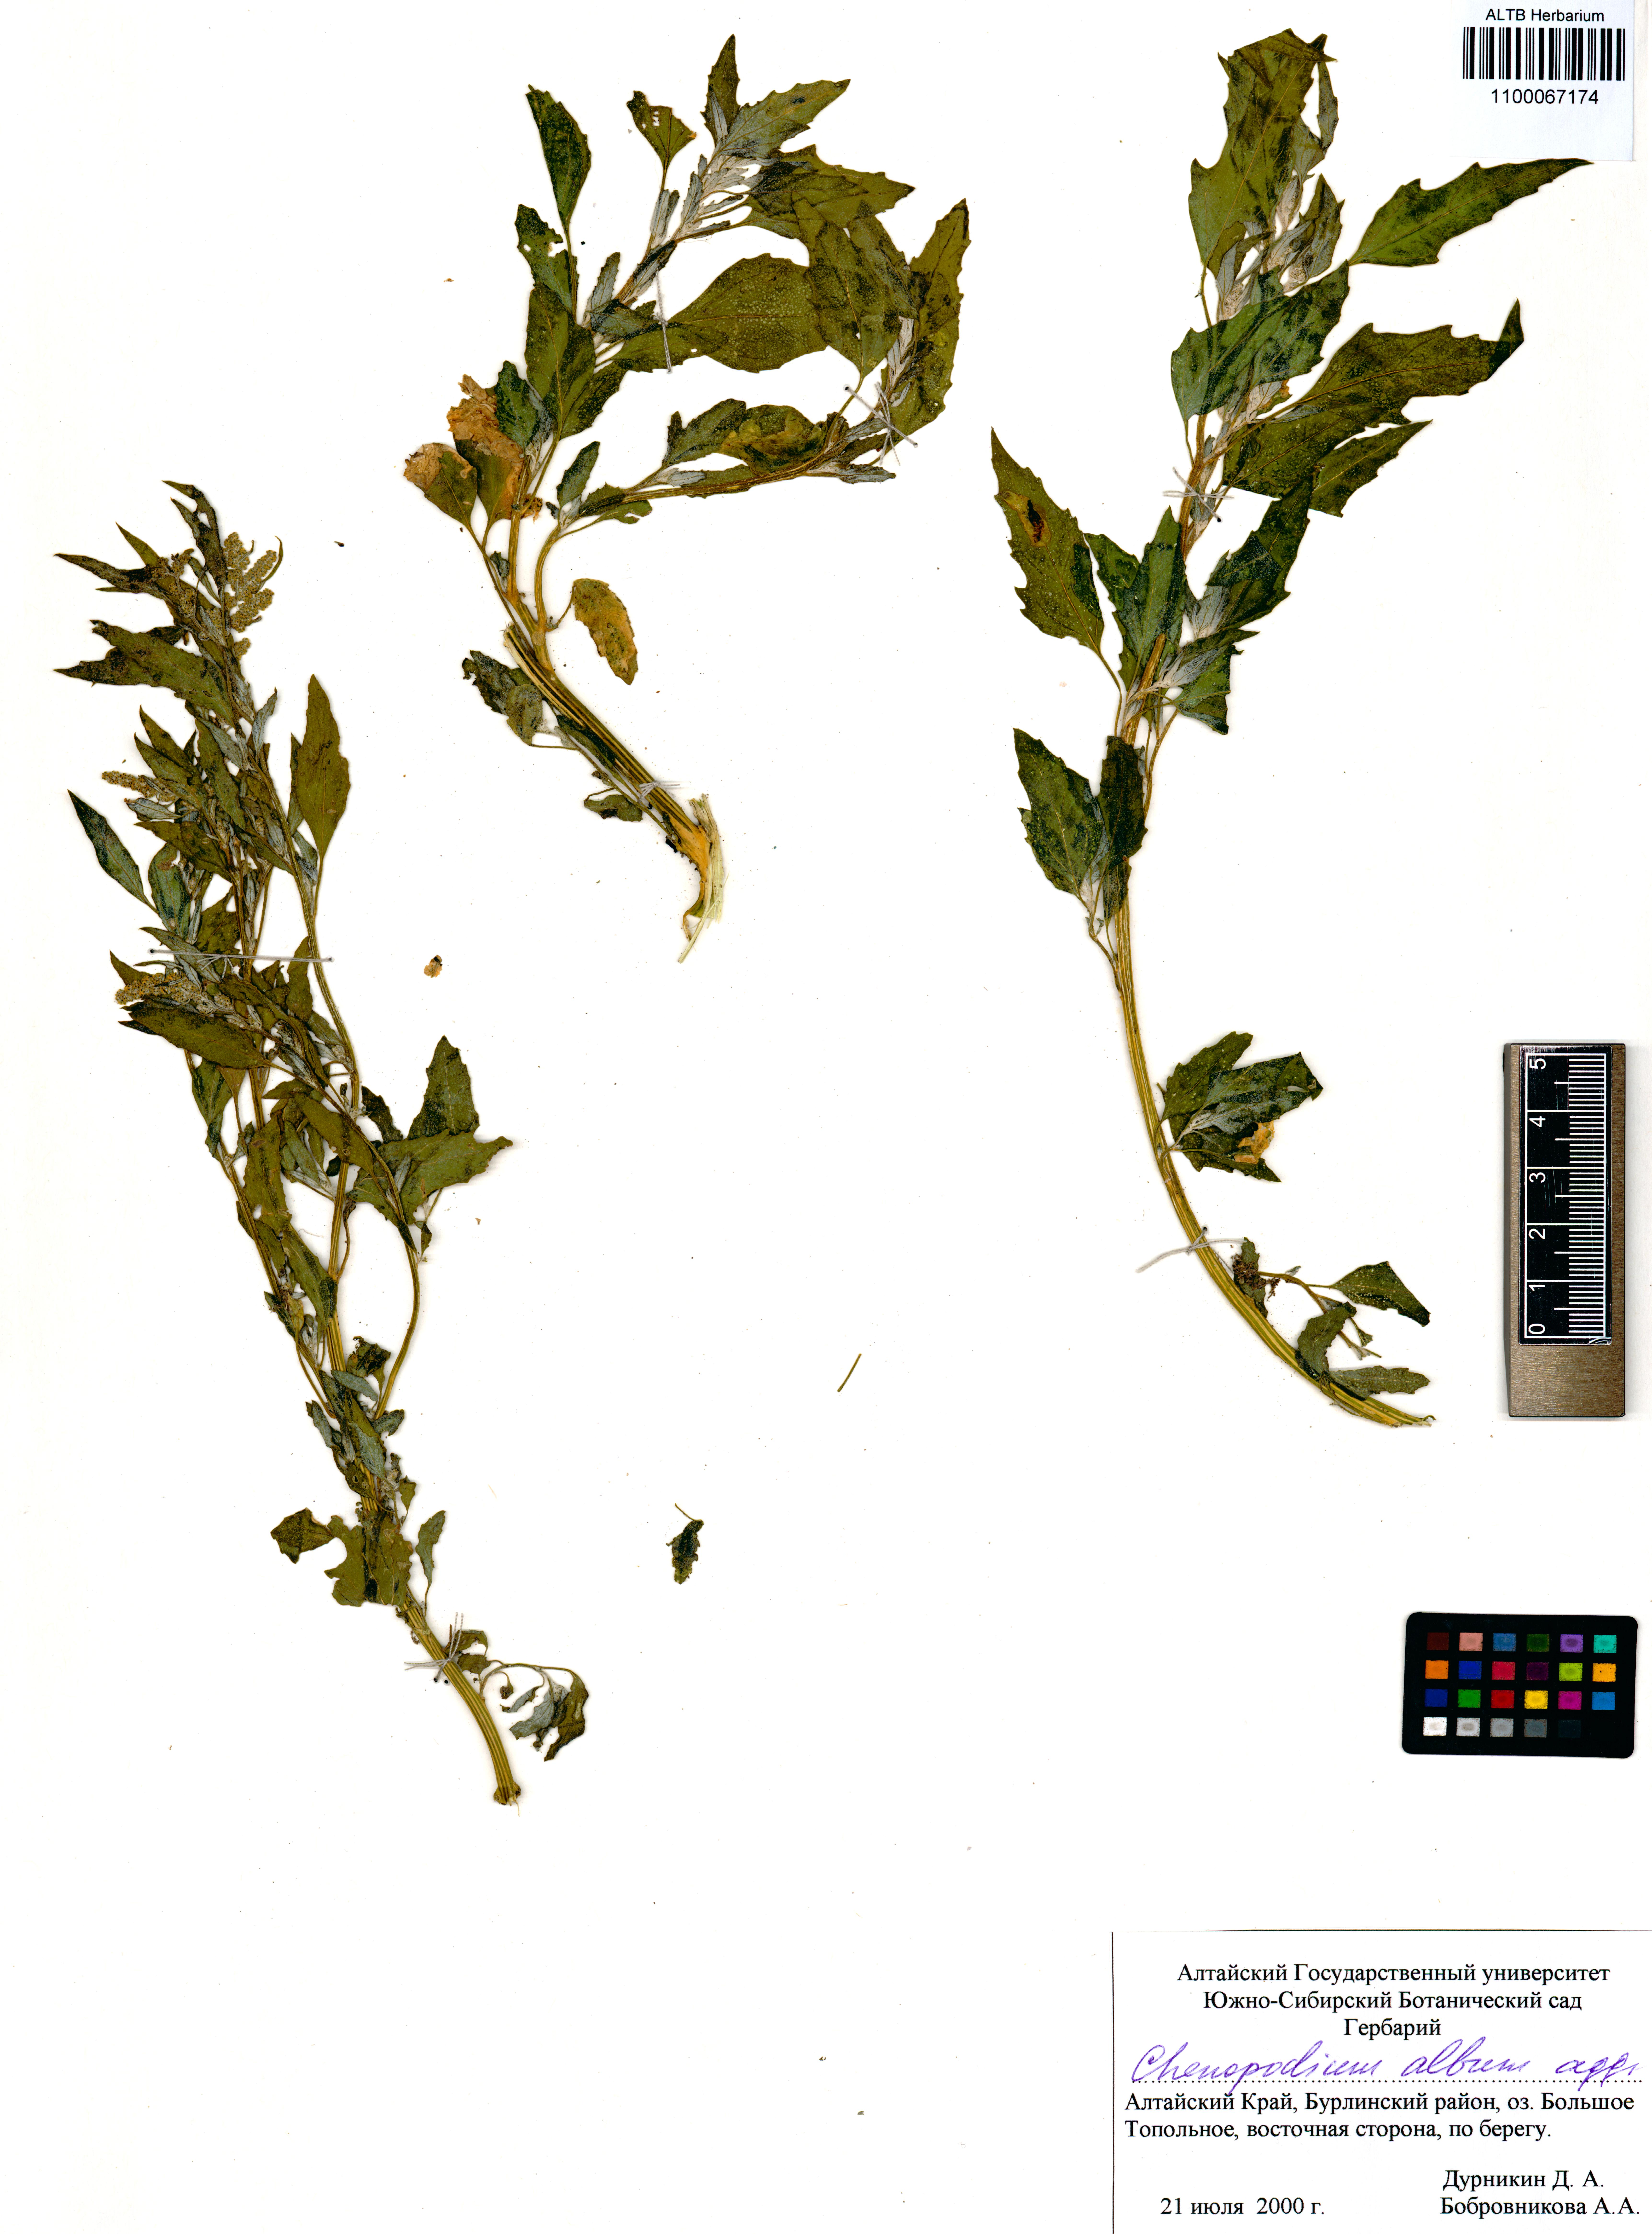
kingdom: Plantae
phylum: Tracheophyta
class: Magnoliopsida
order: Caryophyllales
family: Amaranthaceae
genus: Chenopodium
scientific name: Chenopodium album
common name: Fat-hen
